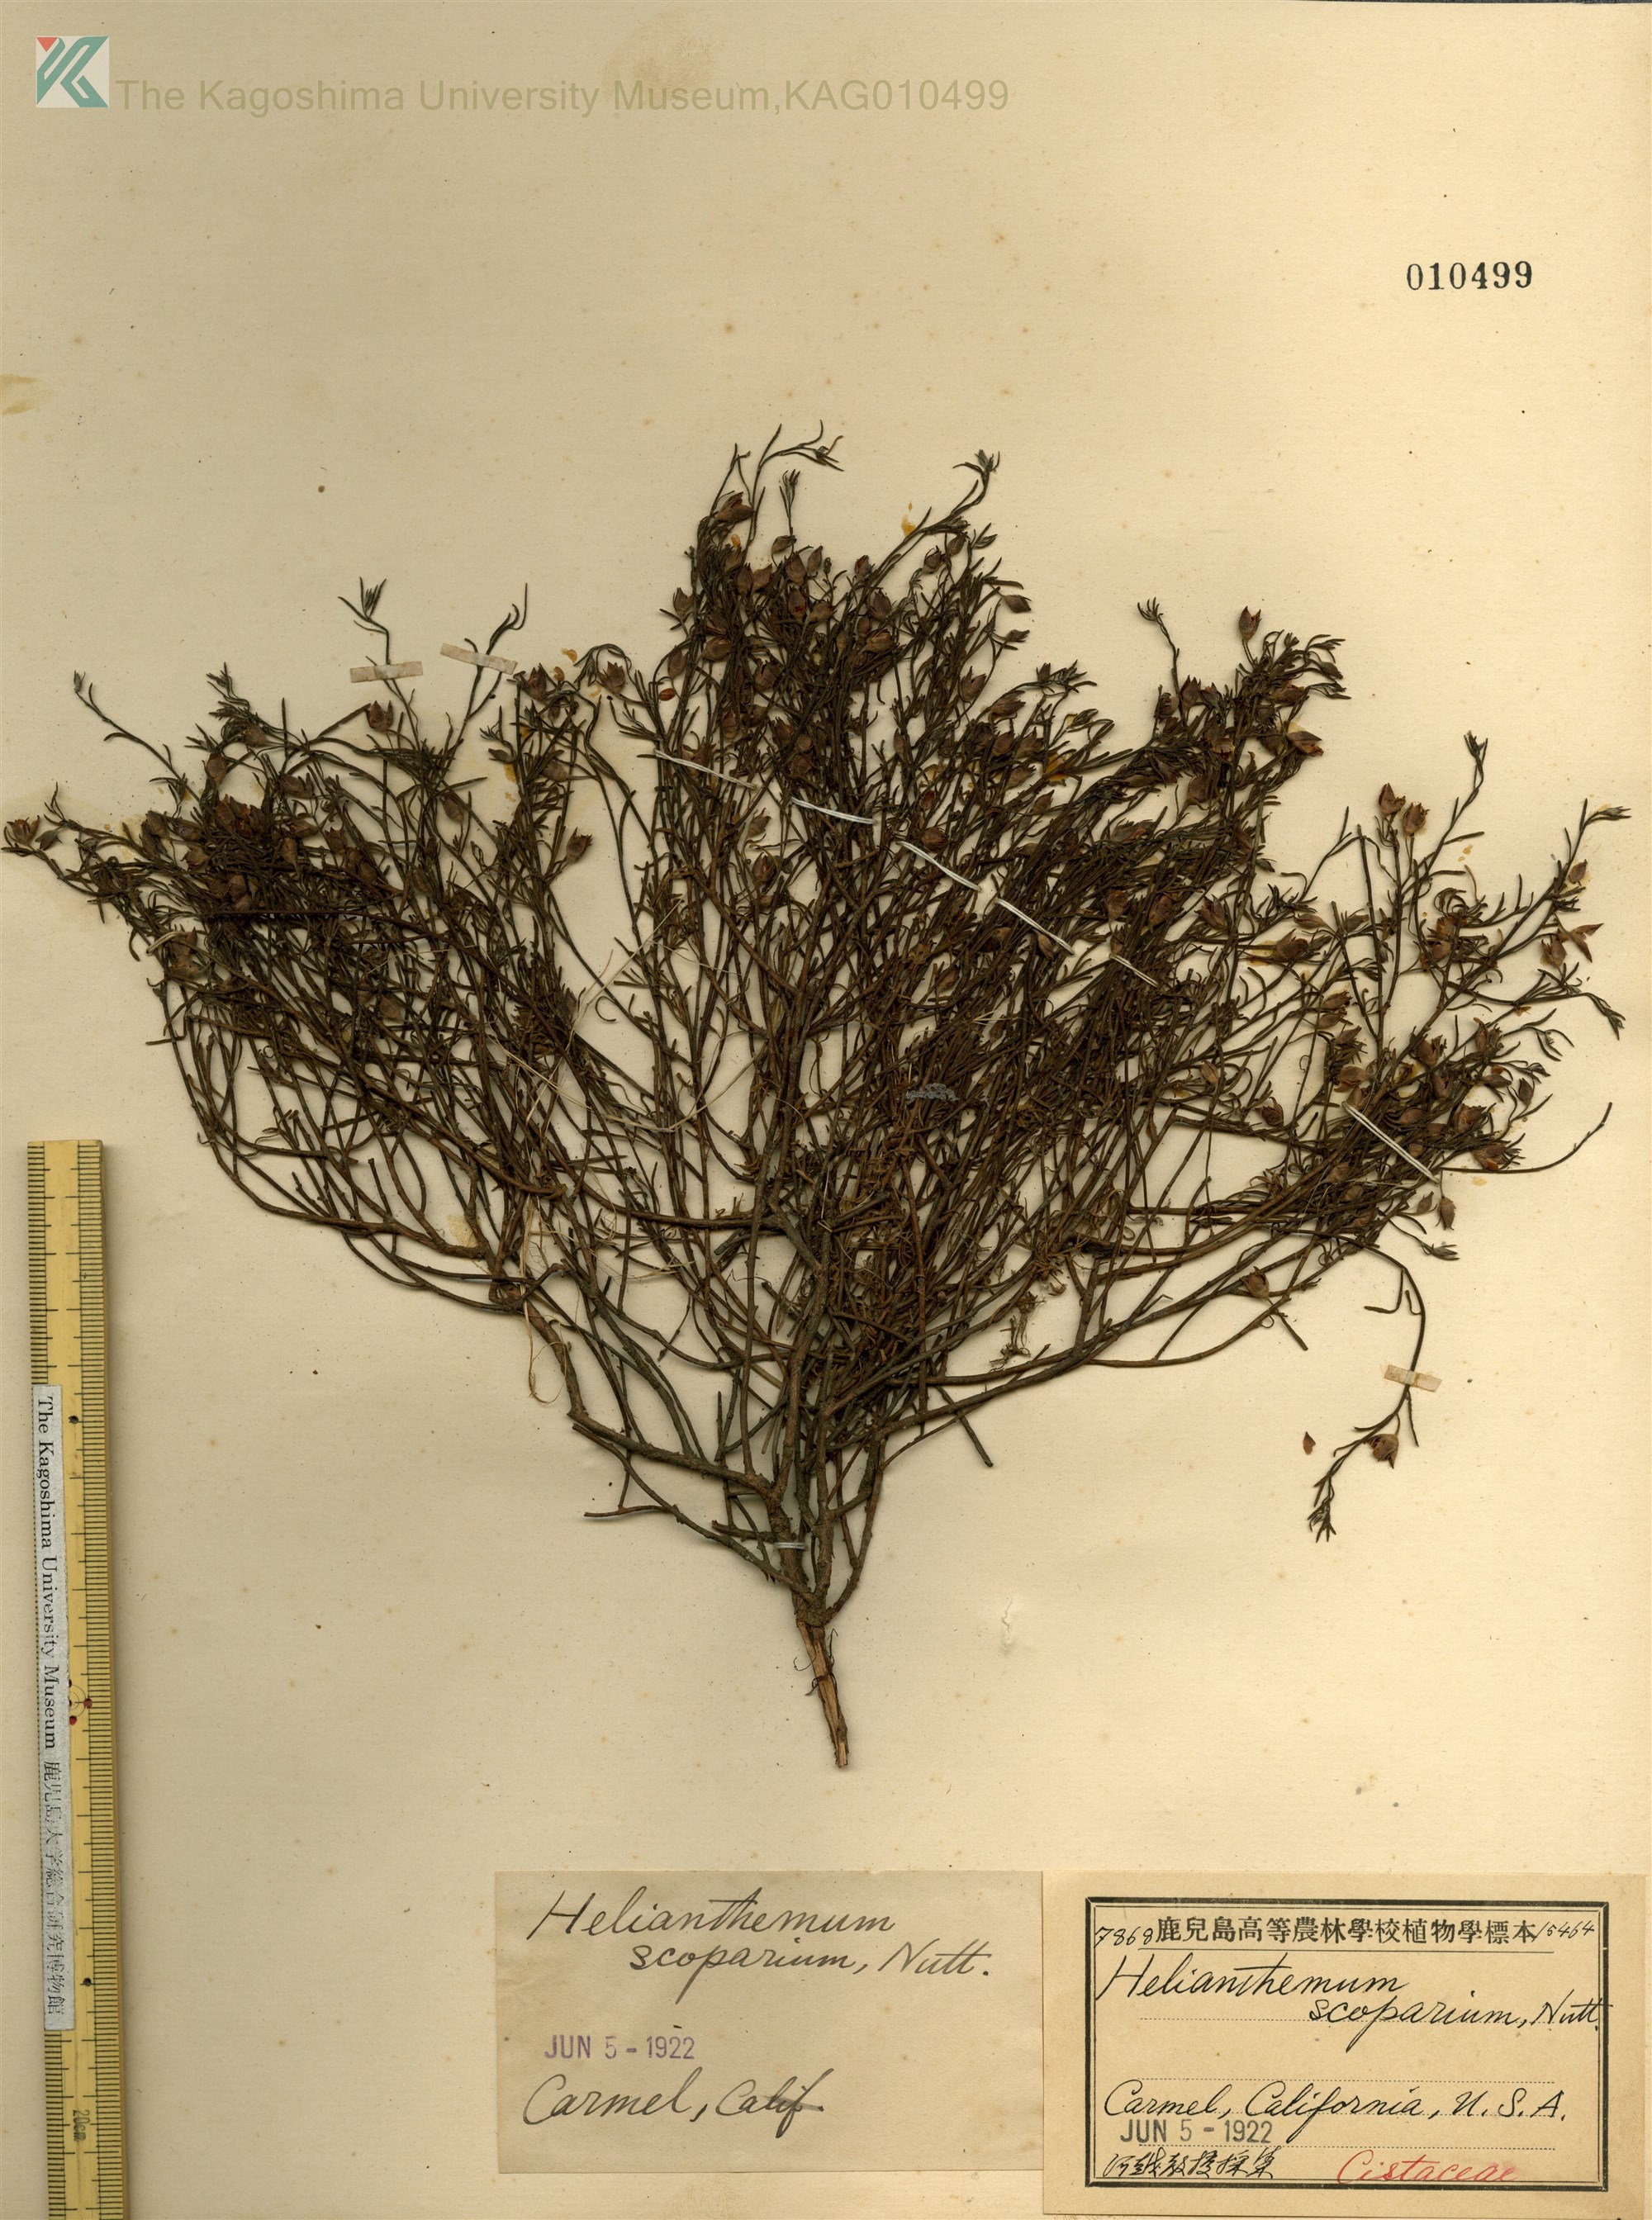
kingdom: Plantae
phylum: Tracheophyta
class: Magnoliopsida
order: Malvales
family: Cistaceae
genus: Crocanthemum
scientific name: Crocanthemum scoparium
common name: Broom-rose
